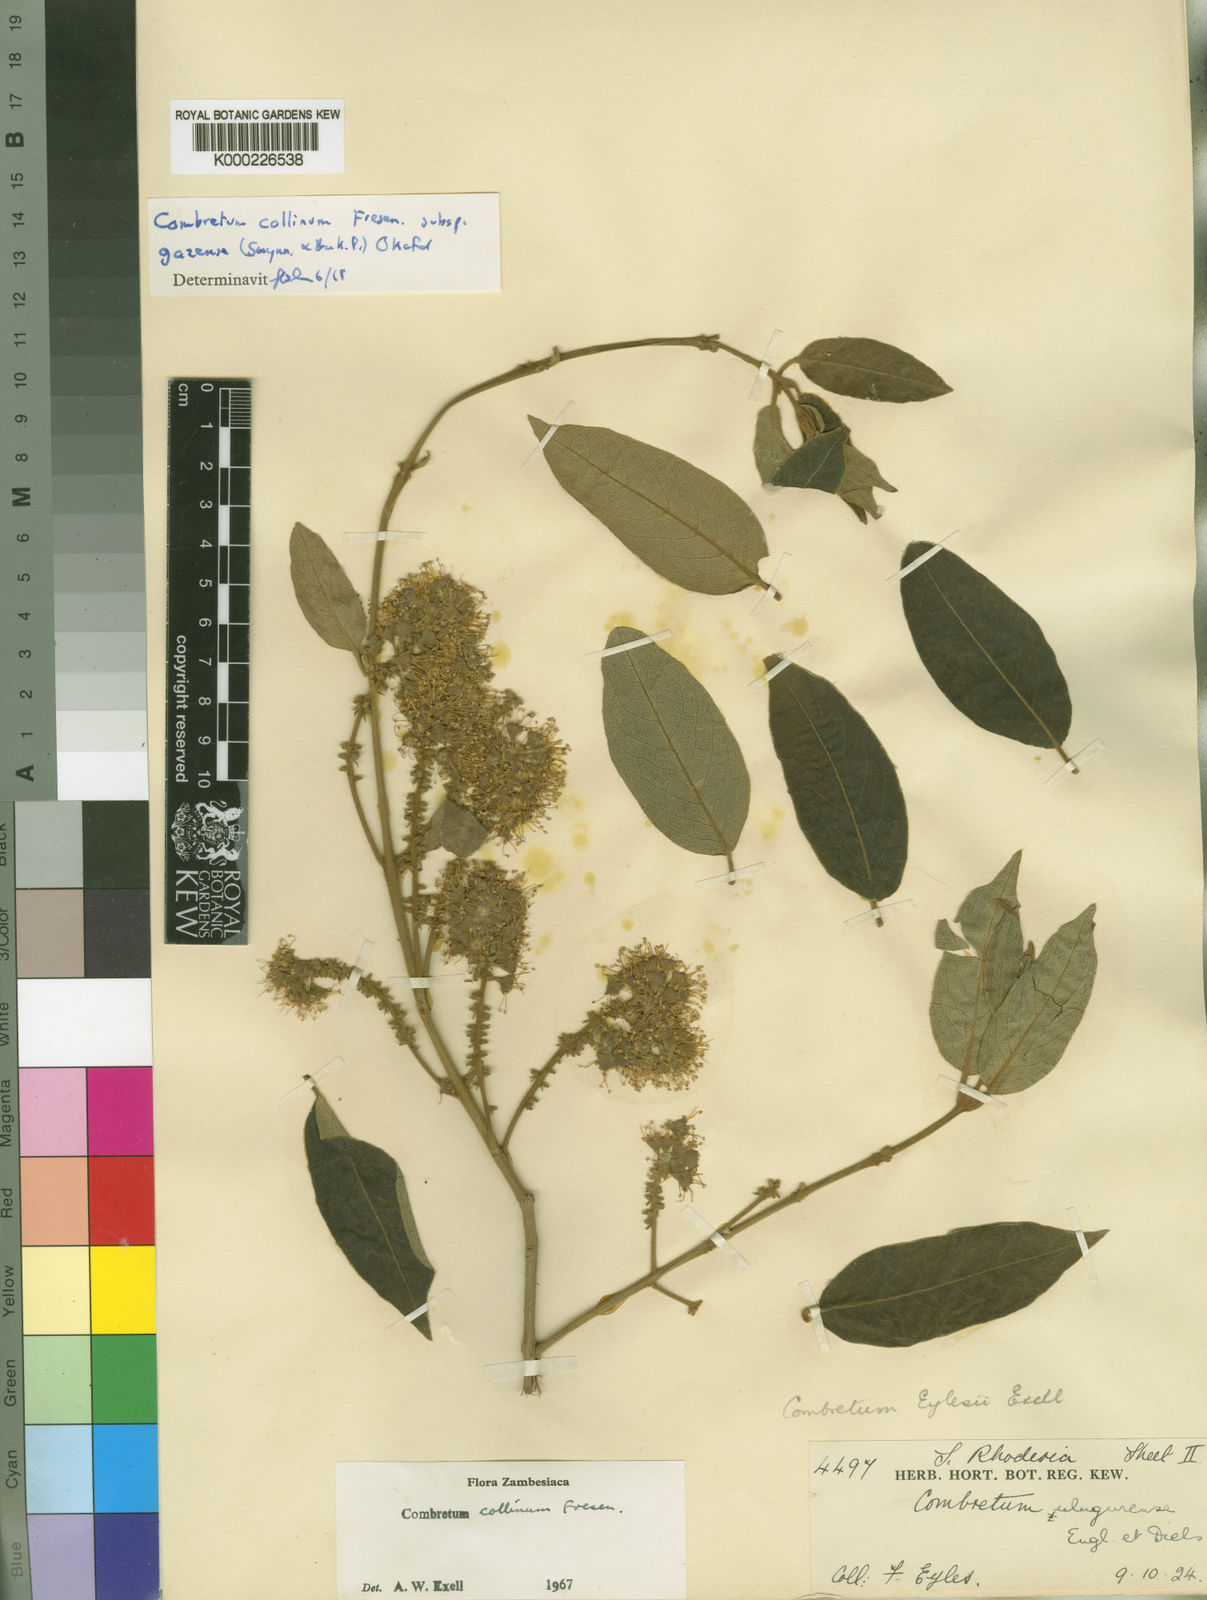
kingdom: Plantae
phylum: Tracheophyta
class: Magnoliopsida
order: Myrtales
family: Combretaceae
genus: Combretum
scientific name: Combretum collinum
